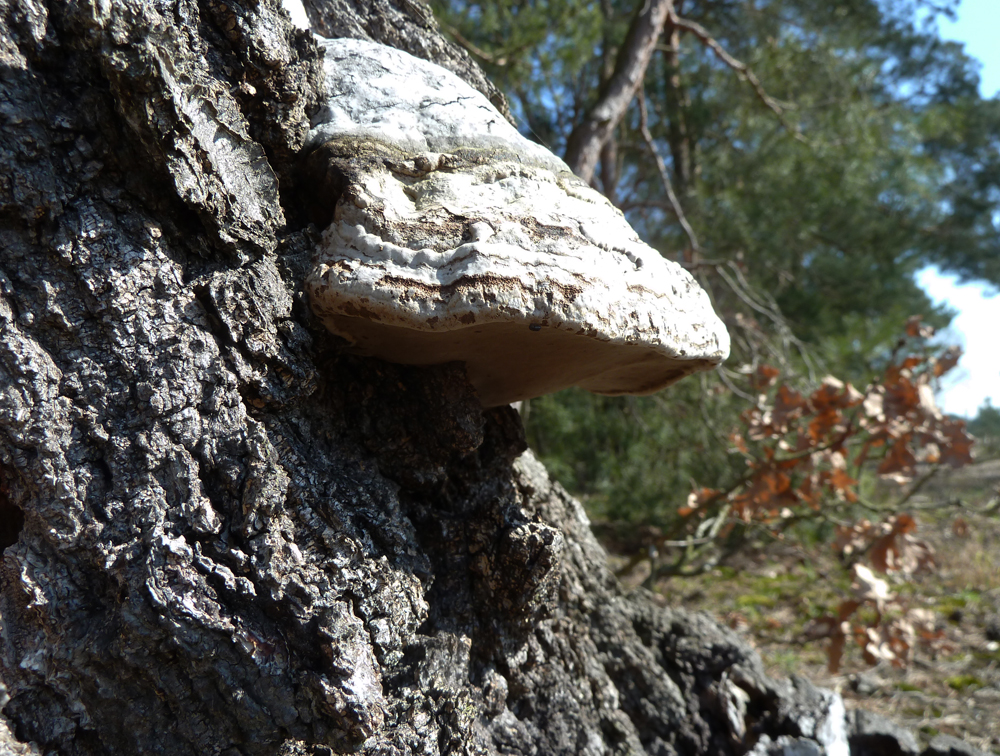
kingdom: Fungi
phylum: Basidiomycota
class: Agaricomycetes
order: Polyporales
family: Polyporaceae
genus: Fomes
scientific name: Fomes fomentarius
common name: Hoof fungus
